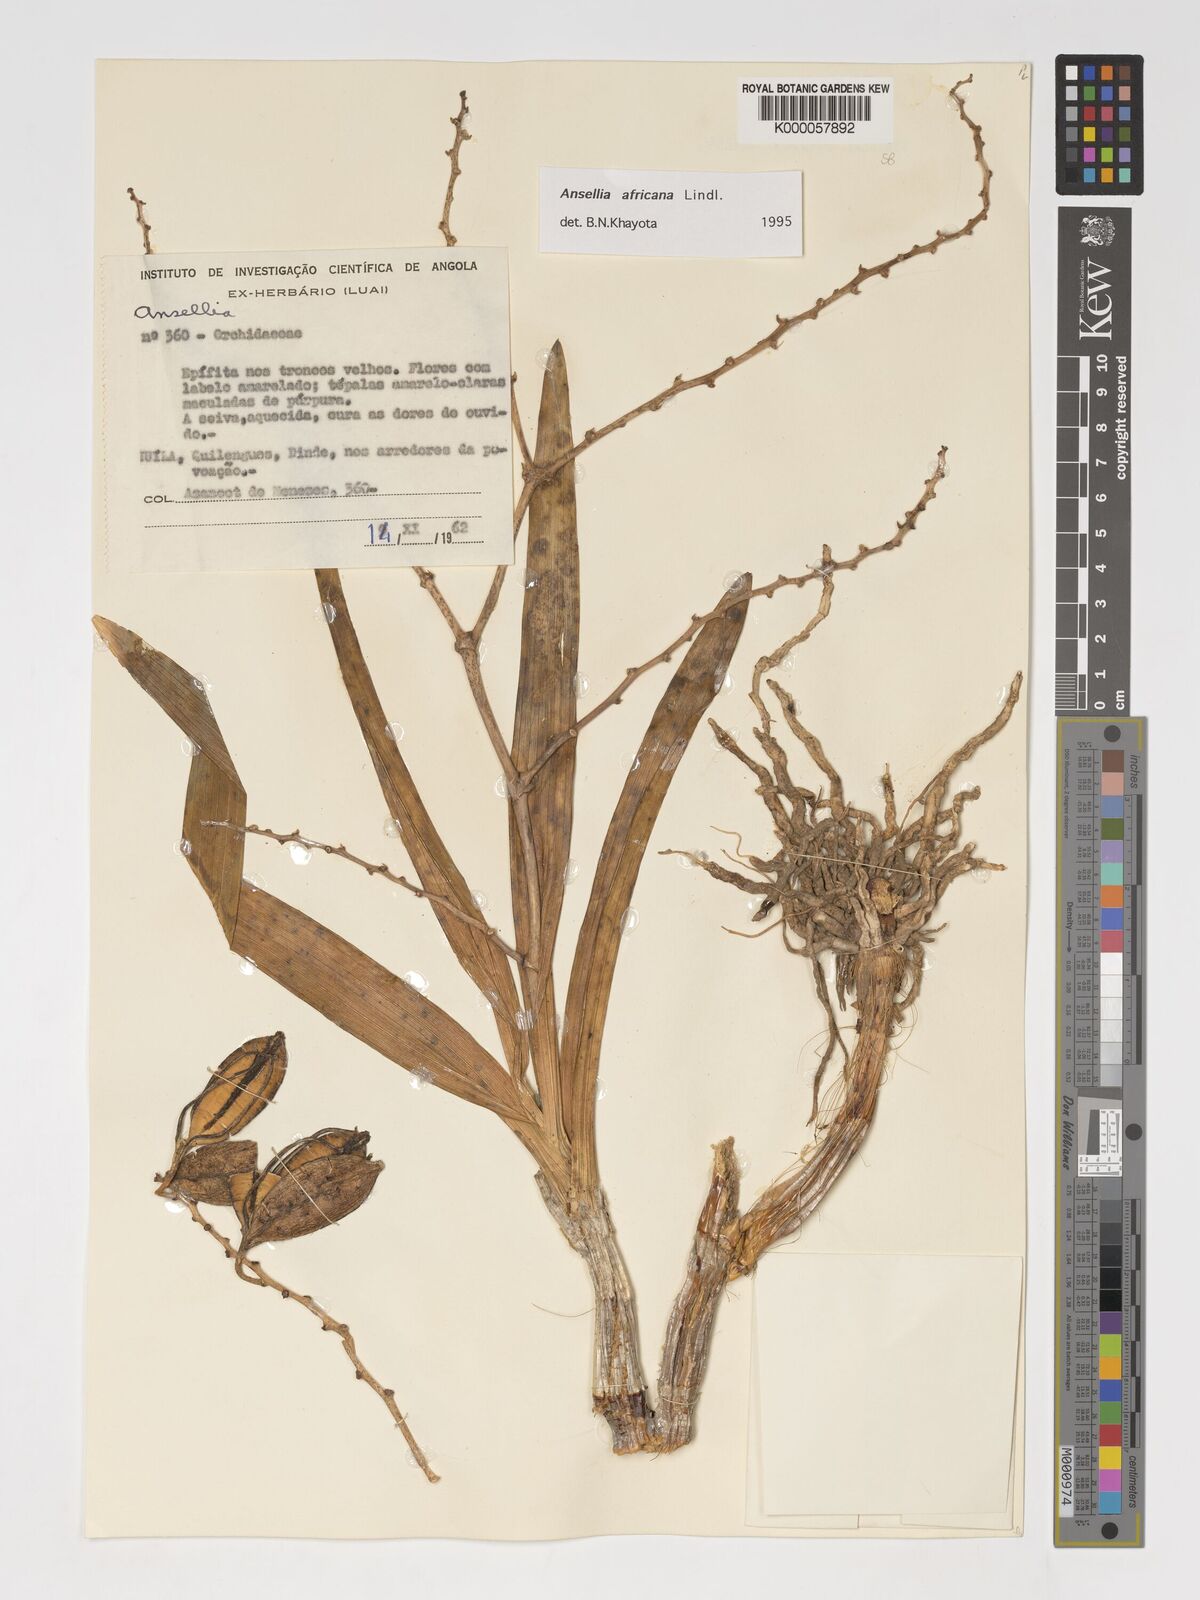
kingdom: Plantae
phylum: Tracheophyta
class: Liliopsida
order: Asparagales
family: Orchidaceae
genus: Ansellia
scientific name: Ansellia africana
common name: African ansellia
